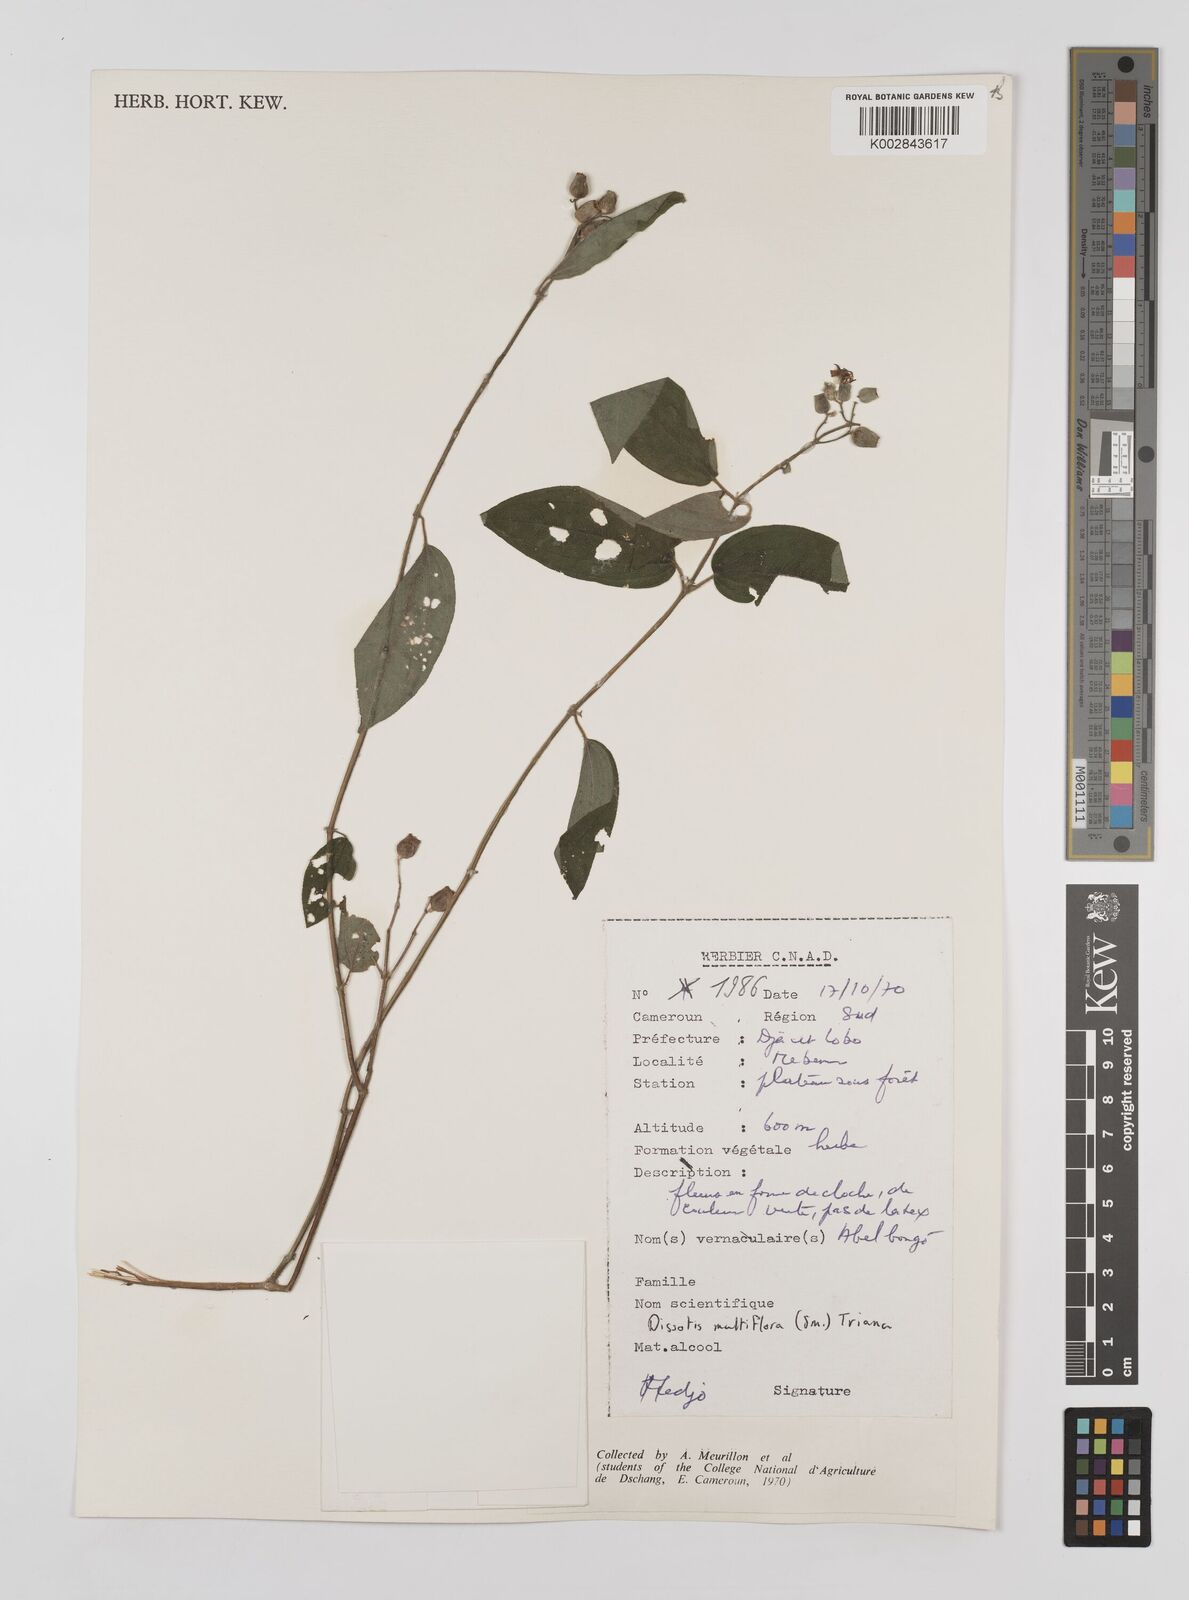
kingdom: Plantae
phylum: Tracheophyta
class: Magnoliopsida
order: Myrtales
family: Melastomataceae
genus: Dupineta
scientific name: Dupineta multiflora
